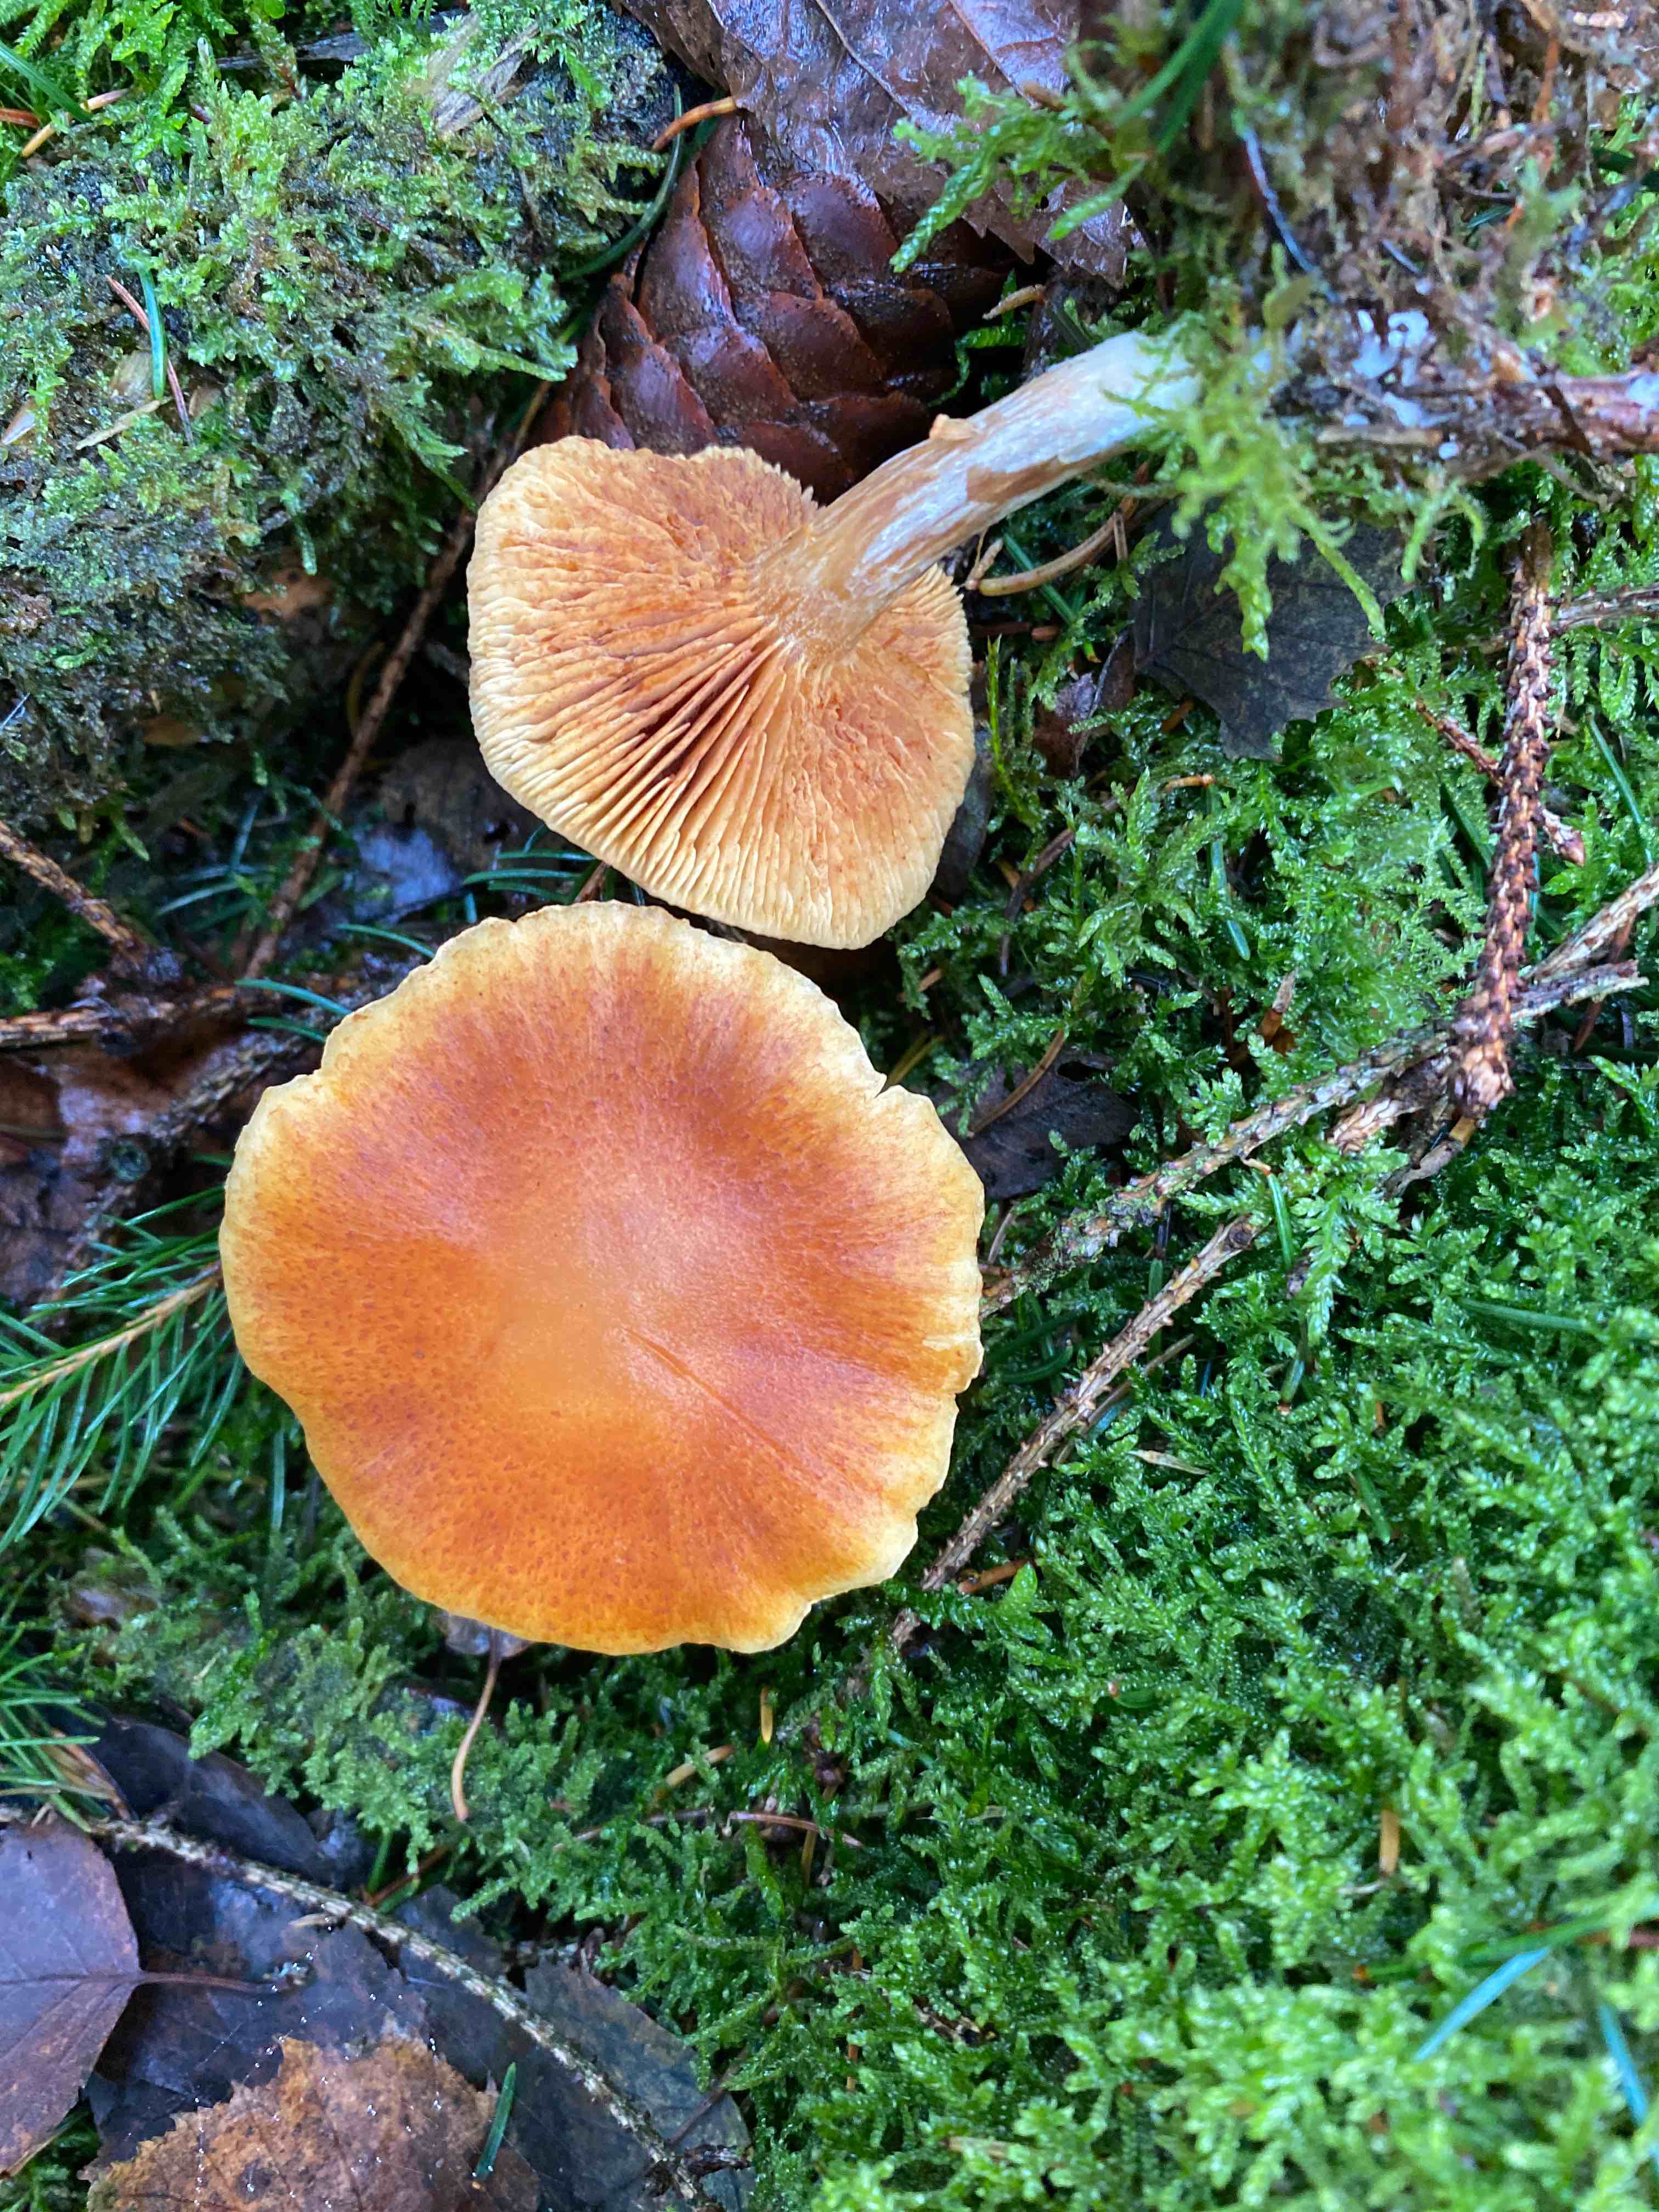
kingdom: Fungi
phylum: Basidiomycota
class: Agaricomycetes
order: Agaricales
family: Hymenogastraceae
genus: Gymnopilus
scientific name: Gymnopilus penetrans
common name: plettet flammehat
